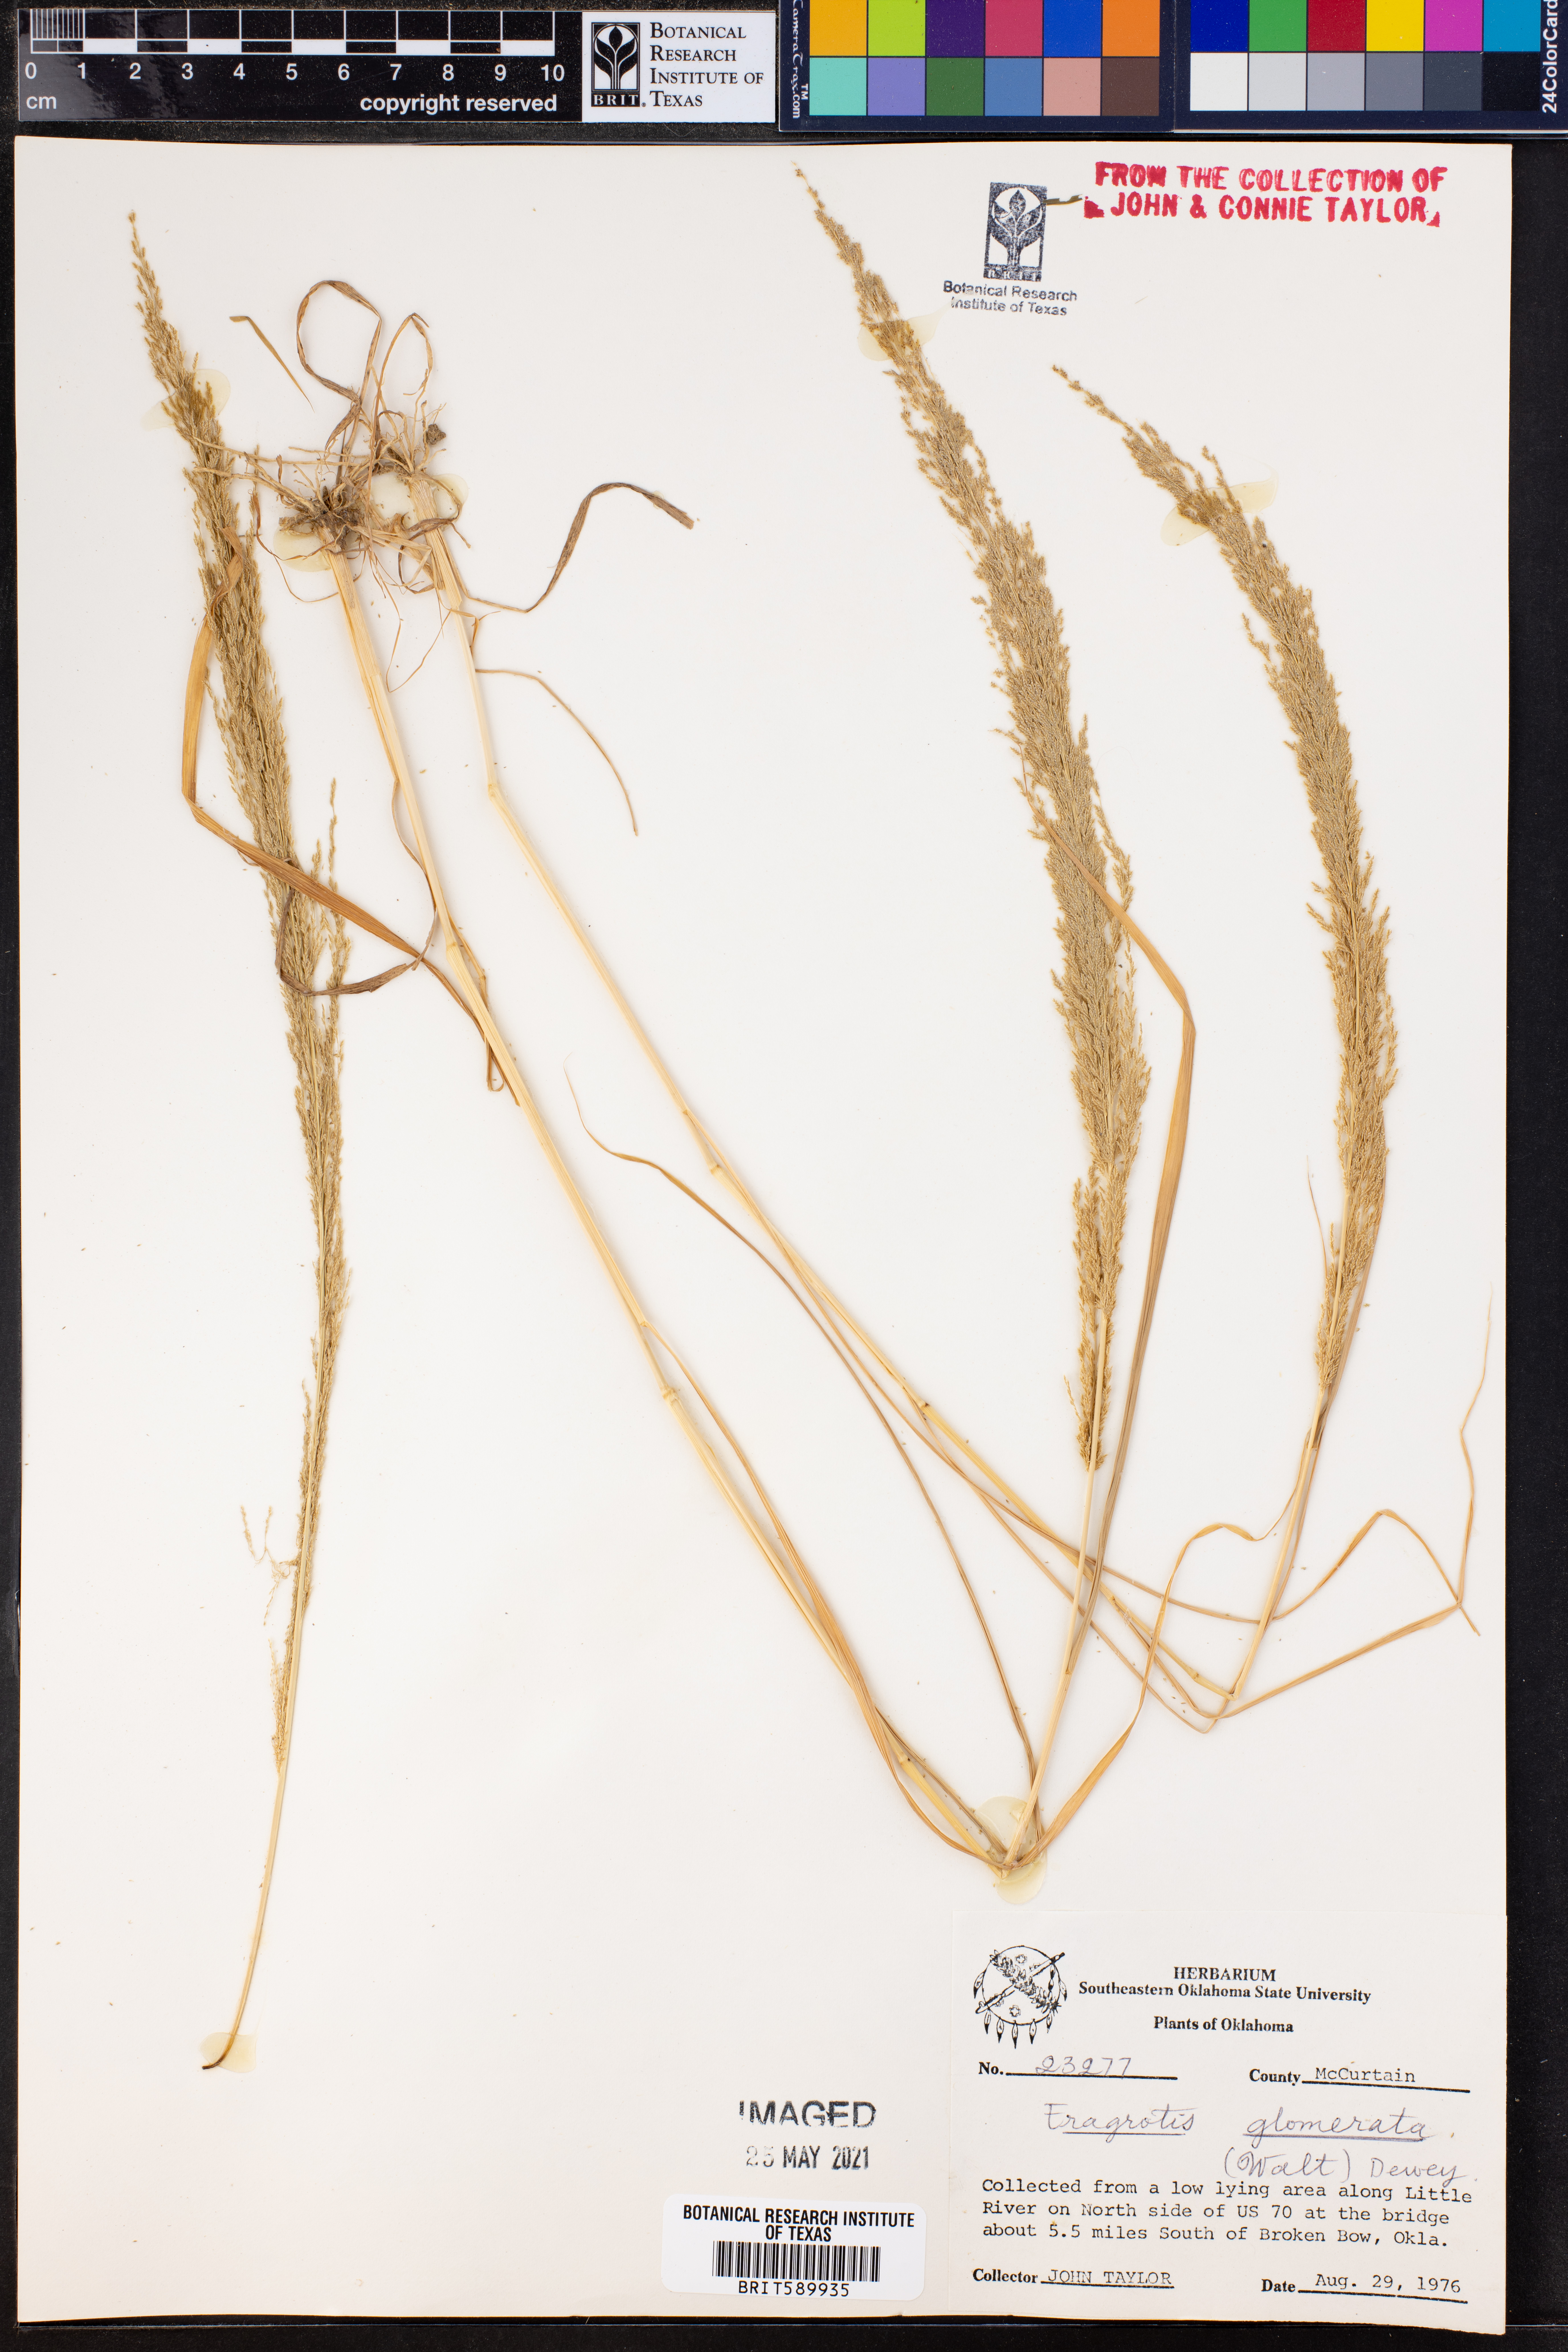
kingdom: Plantae
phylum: Tracheophyta
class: Liliopsida
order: Poales
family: Poaceae
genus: Eragrostis
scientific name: Eragrostis japonica
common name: Pond lovegrass
